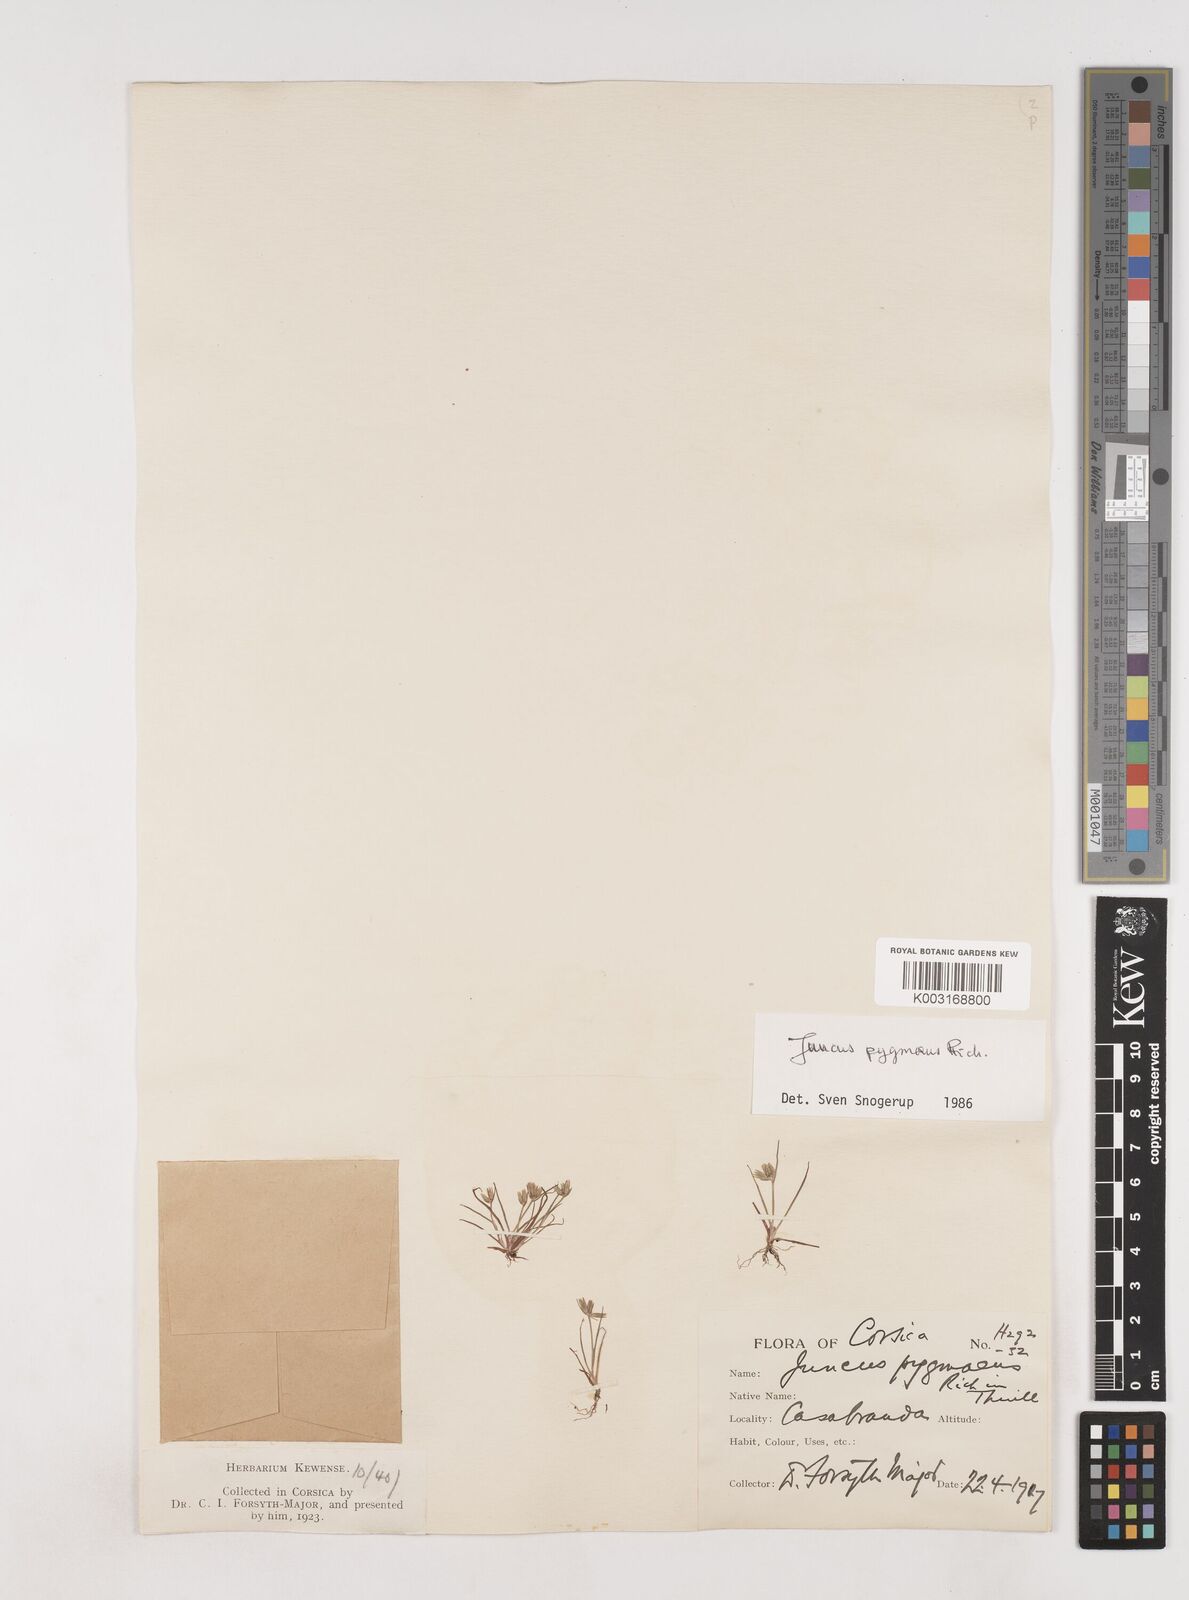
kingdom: Plantae
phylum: Tracheophyta
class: Liliopsida
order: Poales
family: Juncaceae
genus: Juncus
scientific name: Juncus pygmaeus
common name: Pigmy rush
